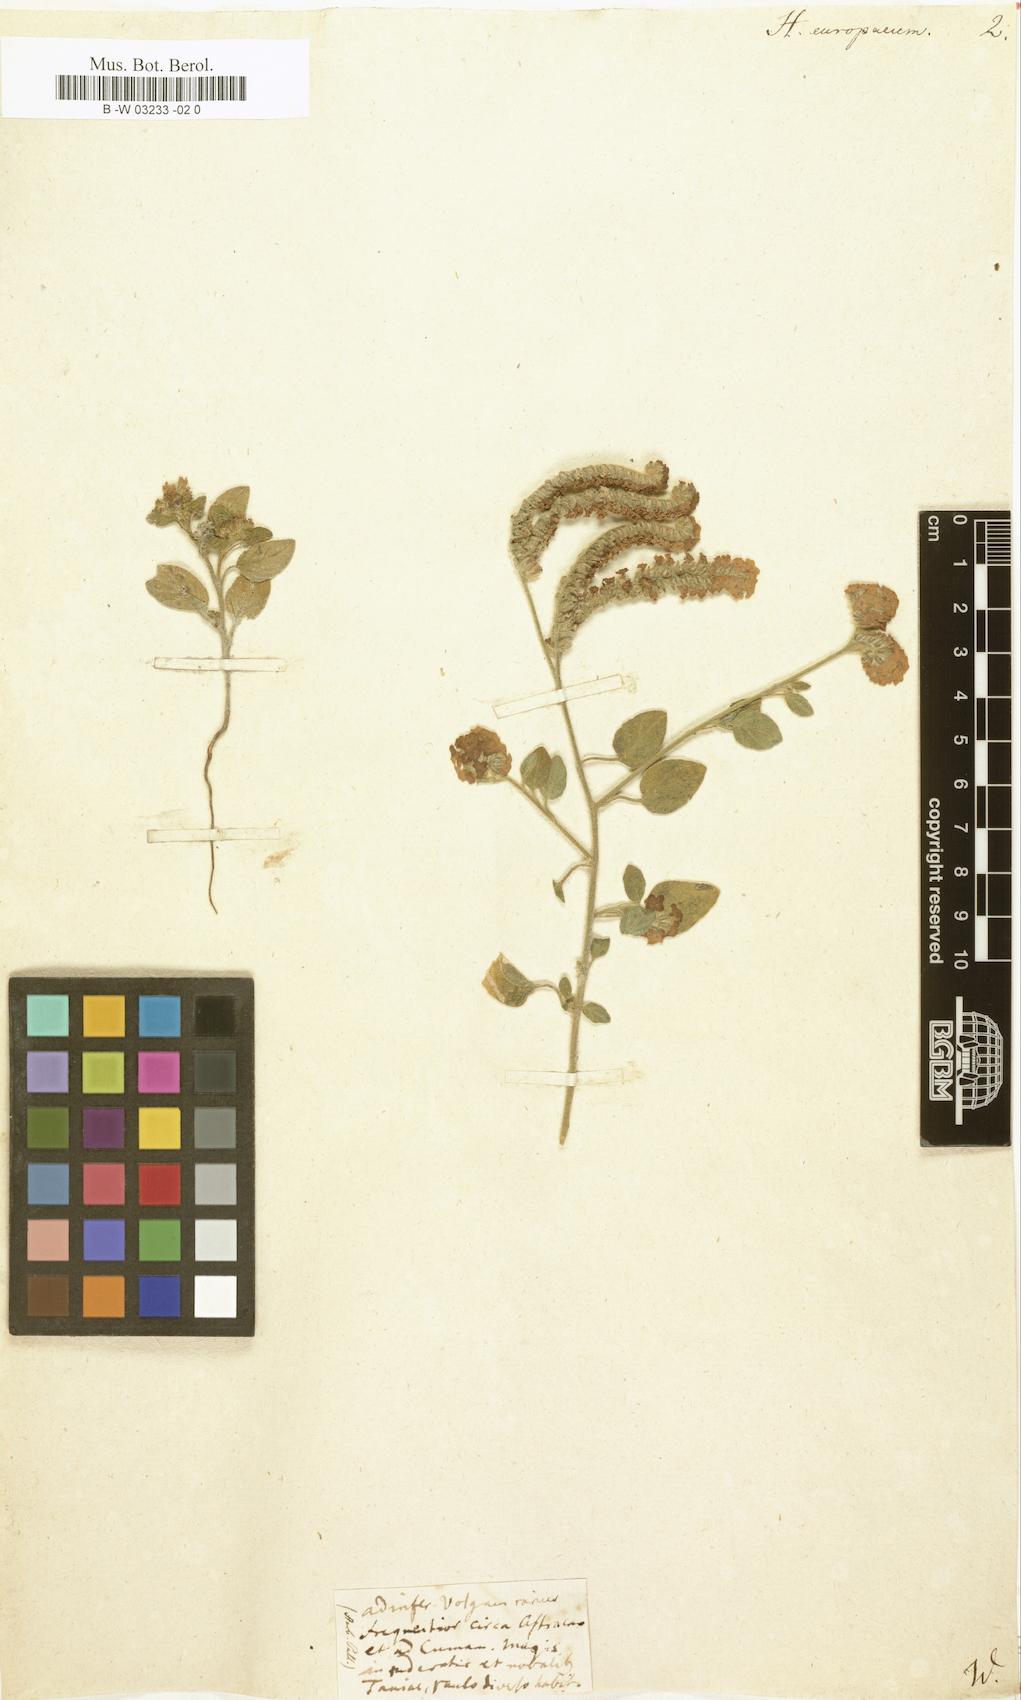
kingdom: Plantae
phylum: Tracheophyta
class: Magnoliopsida
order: Boraginales
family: Heliotropiaceae
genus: Heliotropium
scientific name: Heliotropium europaeum
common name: European heliotrope
